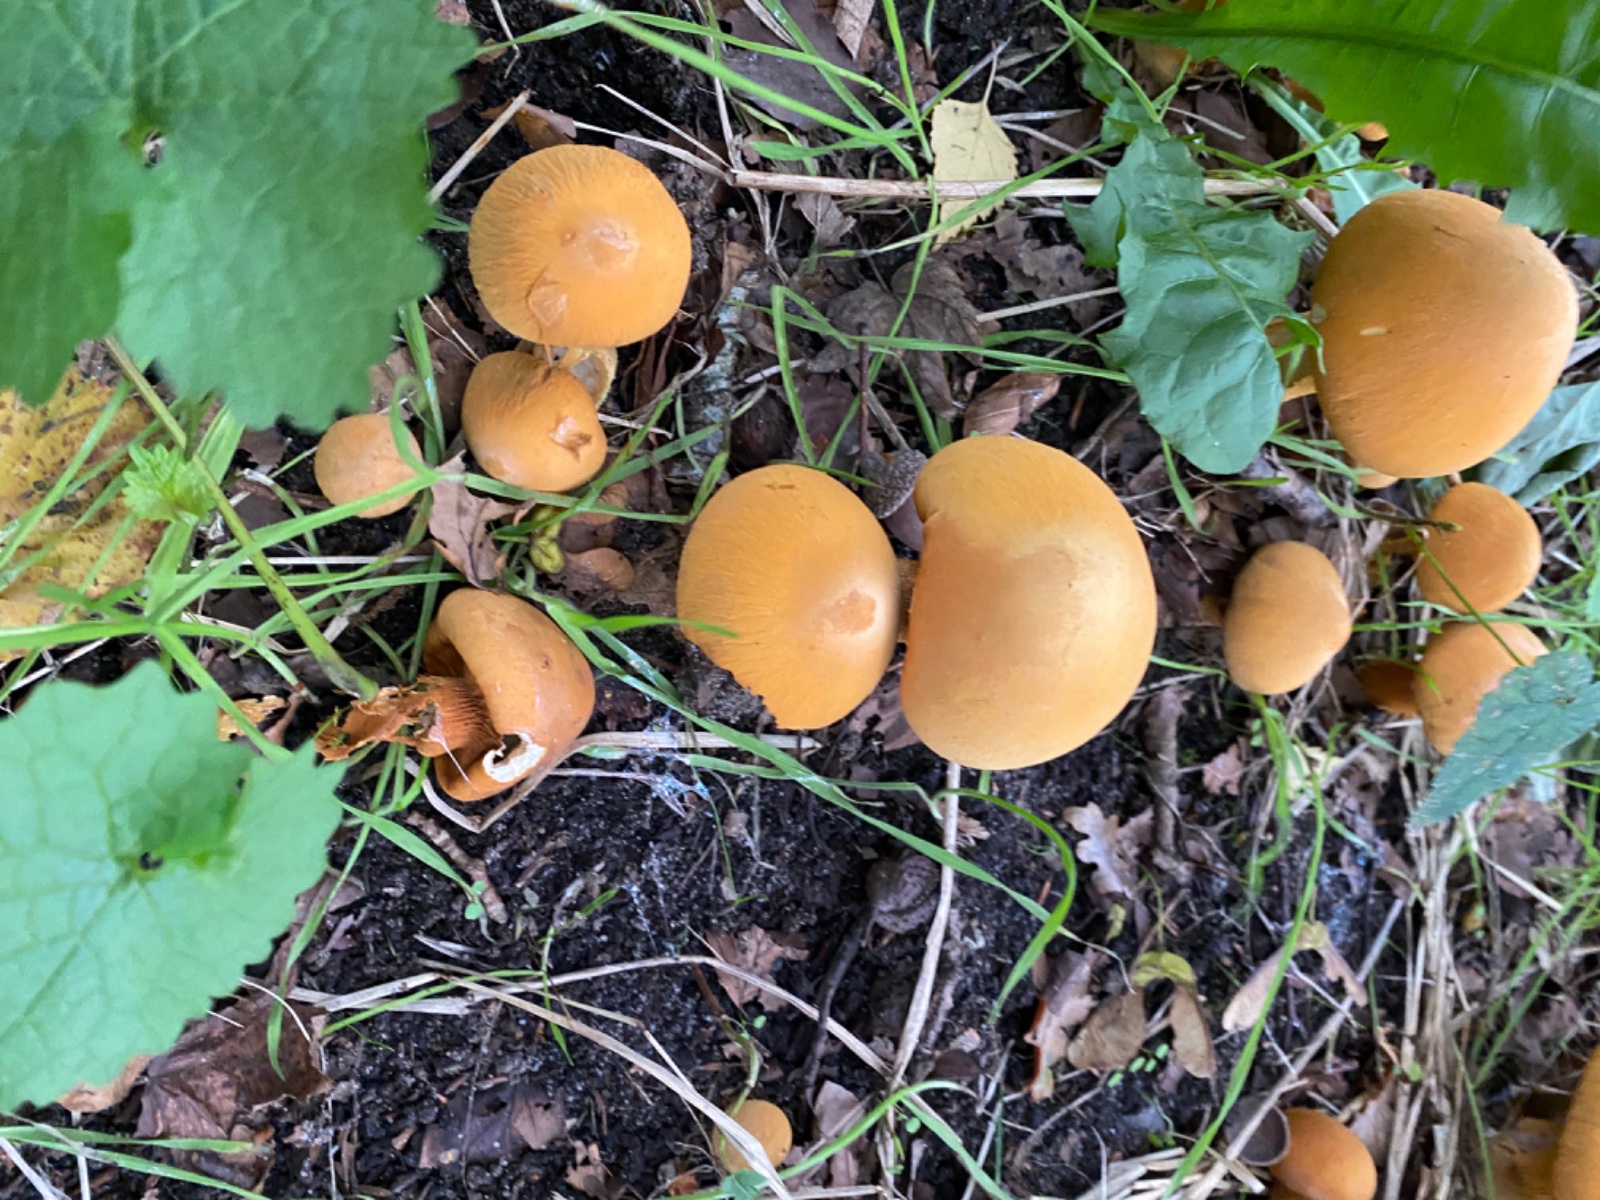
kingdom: Fungi
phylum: Basidiomycota
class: Agaricomycetes
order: Agaricales
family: Tricholomataceae
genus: Phaeolepiota
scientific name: Phaeolepiota aurea
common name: gyldenhat
